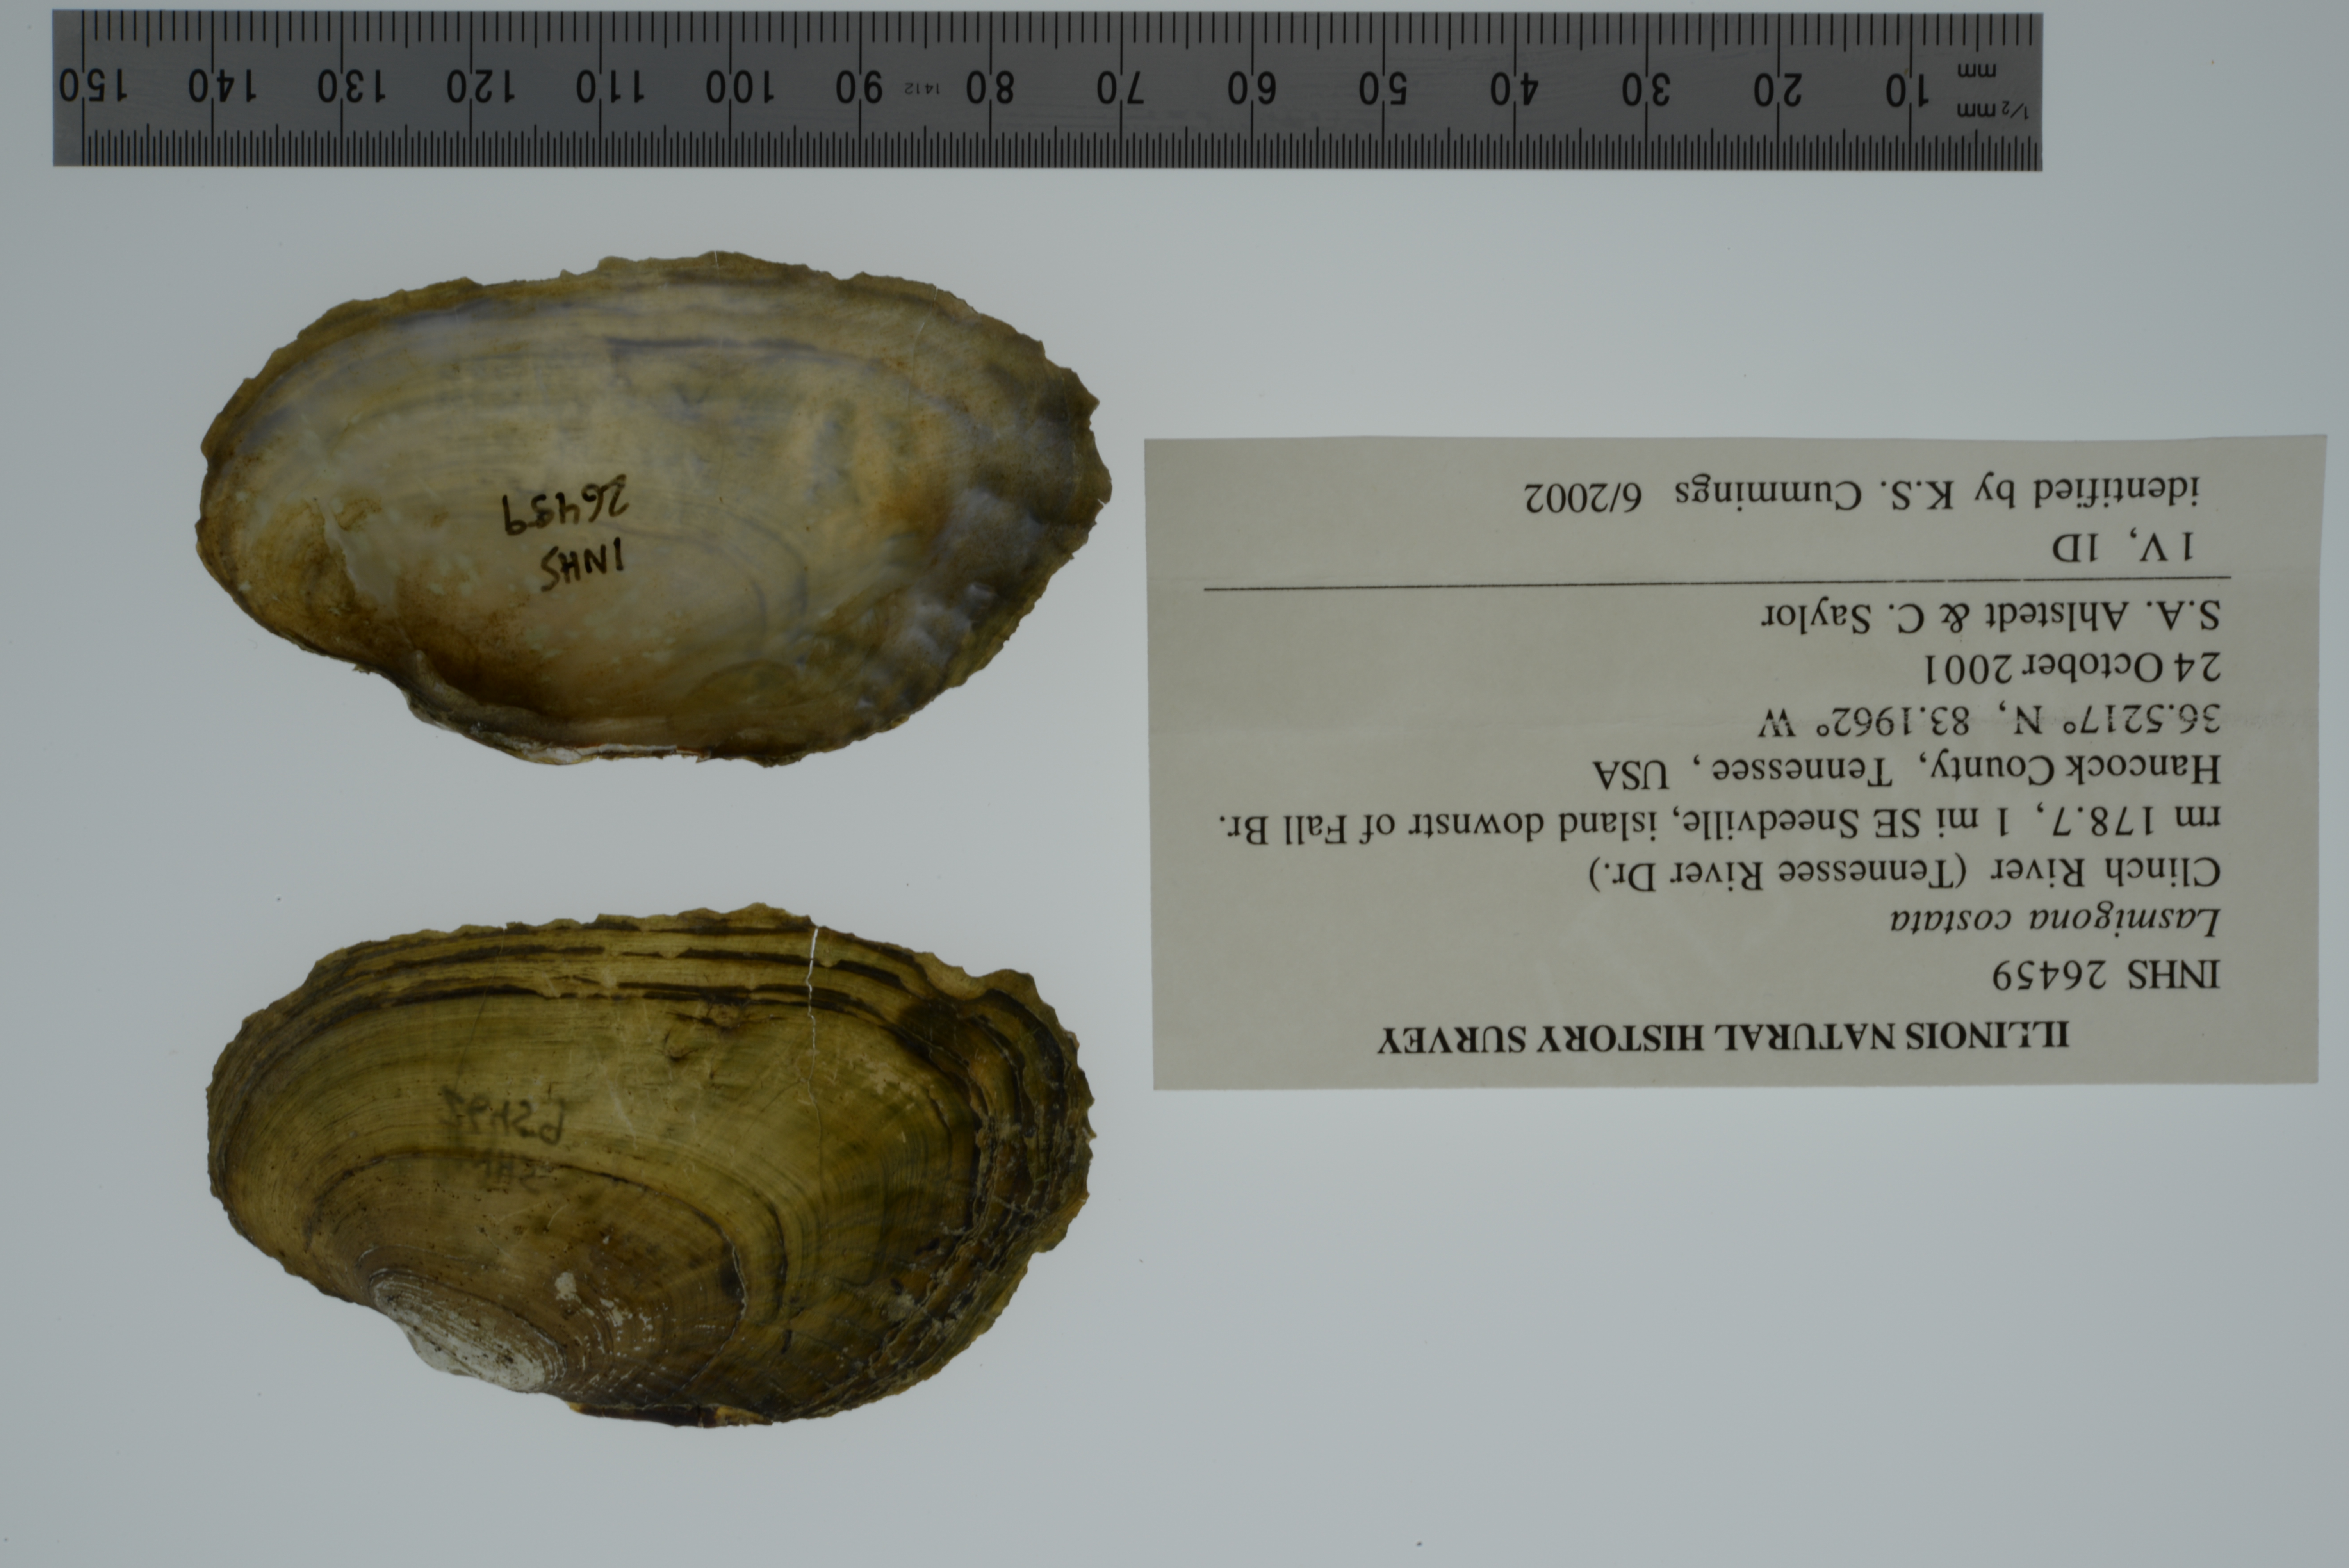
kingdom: Animalia
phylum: Mollusca
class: Bivalvia
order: Unionida
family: Unionidae
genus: Lasmigona
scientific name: Lasmigona costata
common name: Flutedshell
